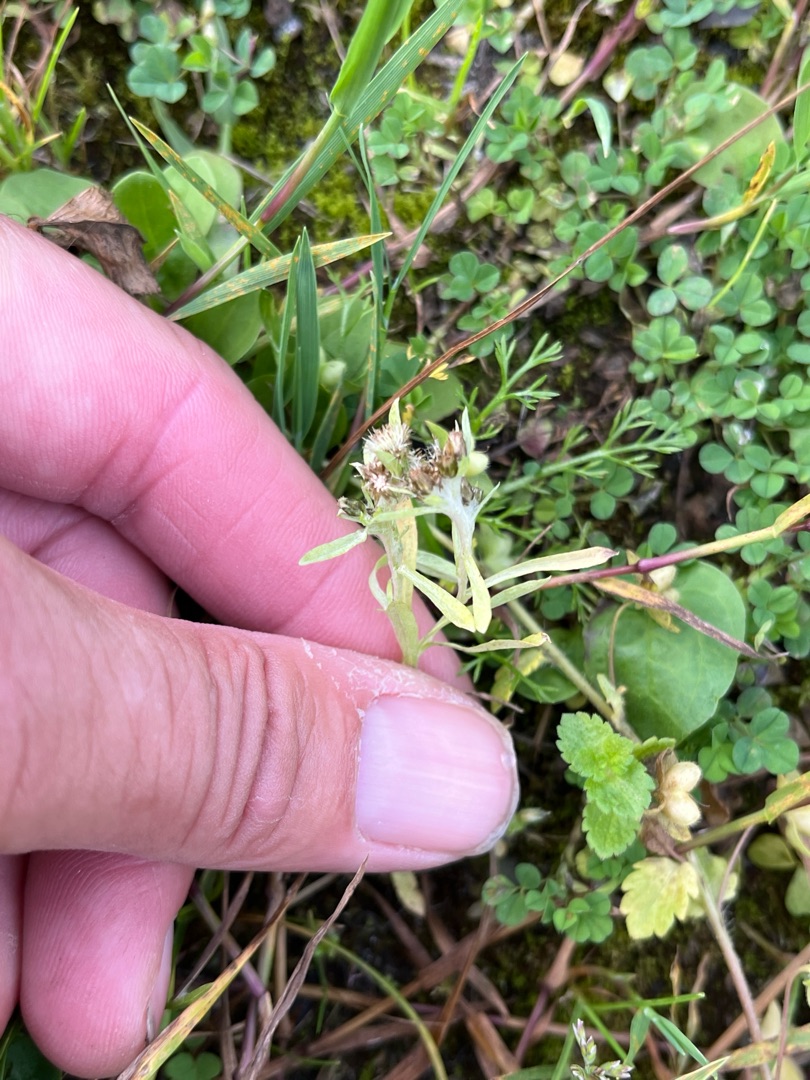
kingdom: Plantae
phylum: Tracheophyta
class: Magnoliopsida
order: Asterales
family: Asteraceae
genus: Gnaphalium
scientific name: Gnaphalium uliginosum
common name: Sump-evighedsblomst
